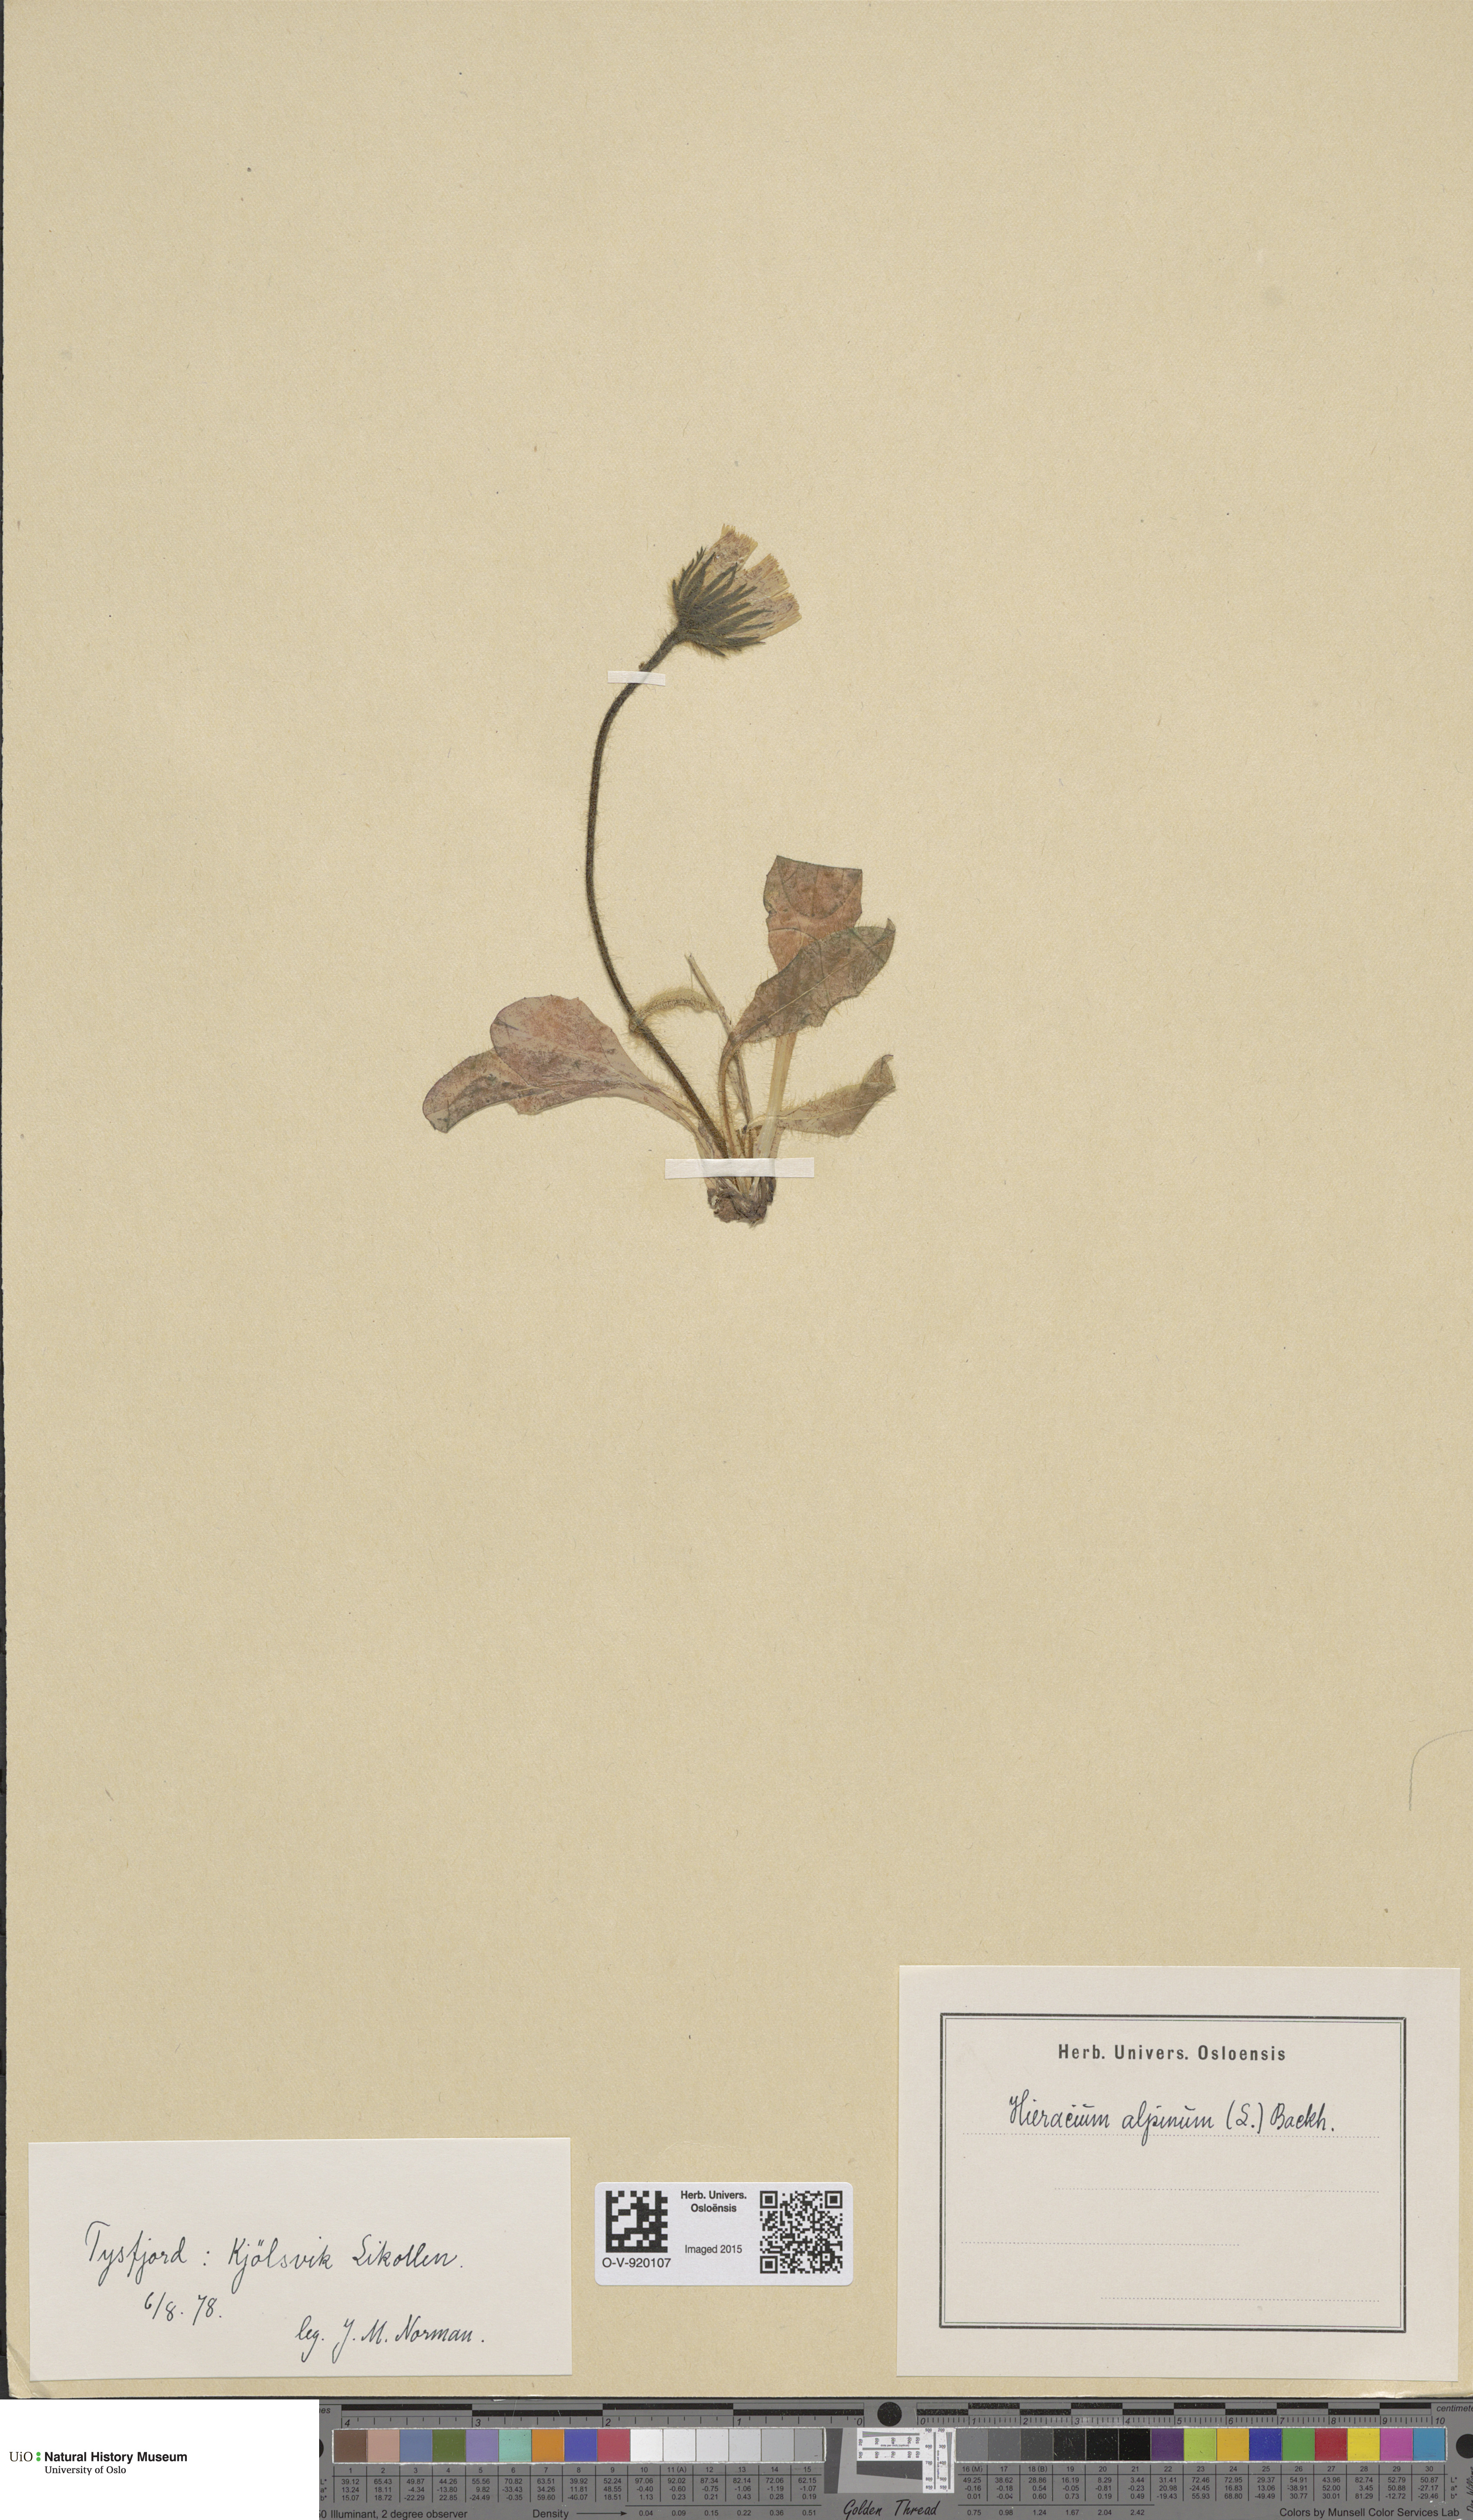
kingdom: Plantae
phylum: Tracheophyta
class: Magnoliopsida
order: Asterales
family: Asteraceae
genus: Hieracium
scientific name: Hieracium alpinum
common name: Alpine hawkweed
